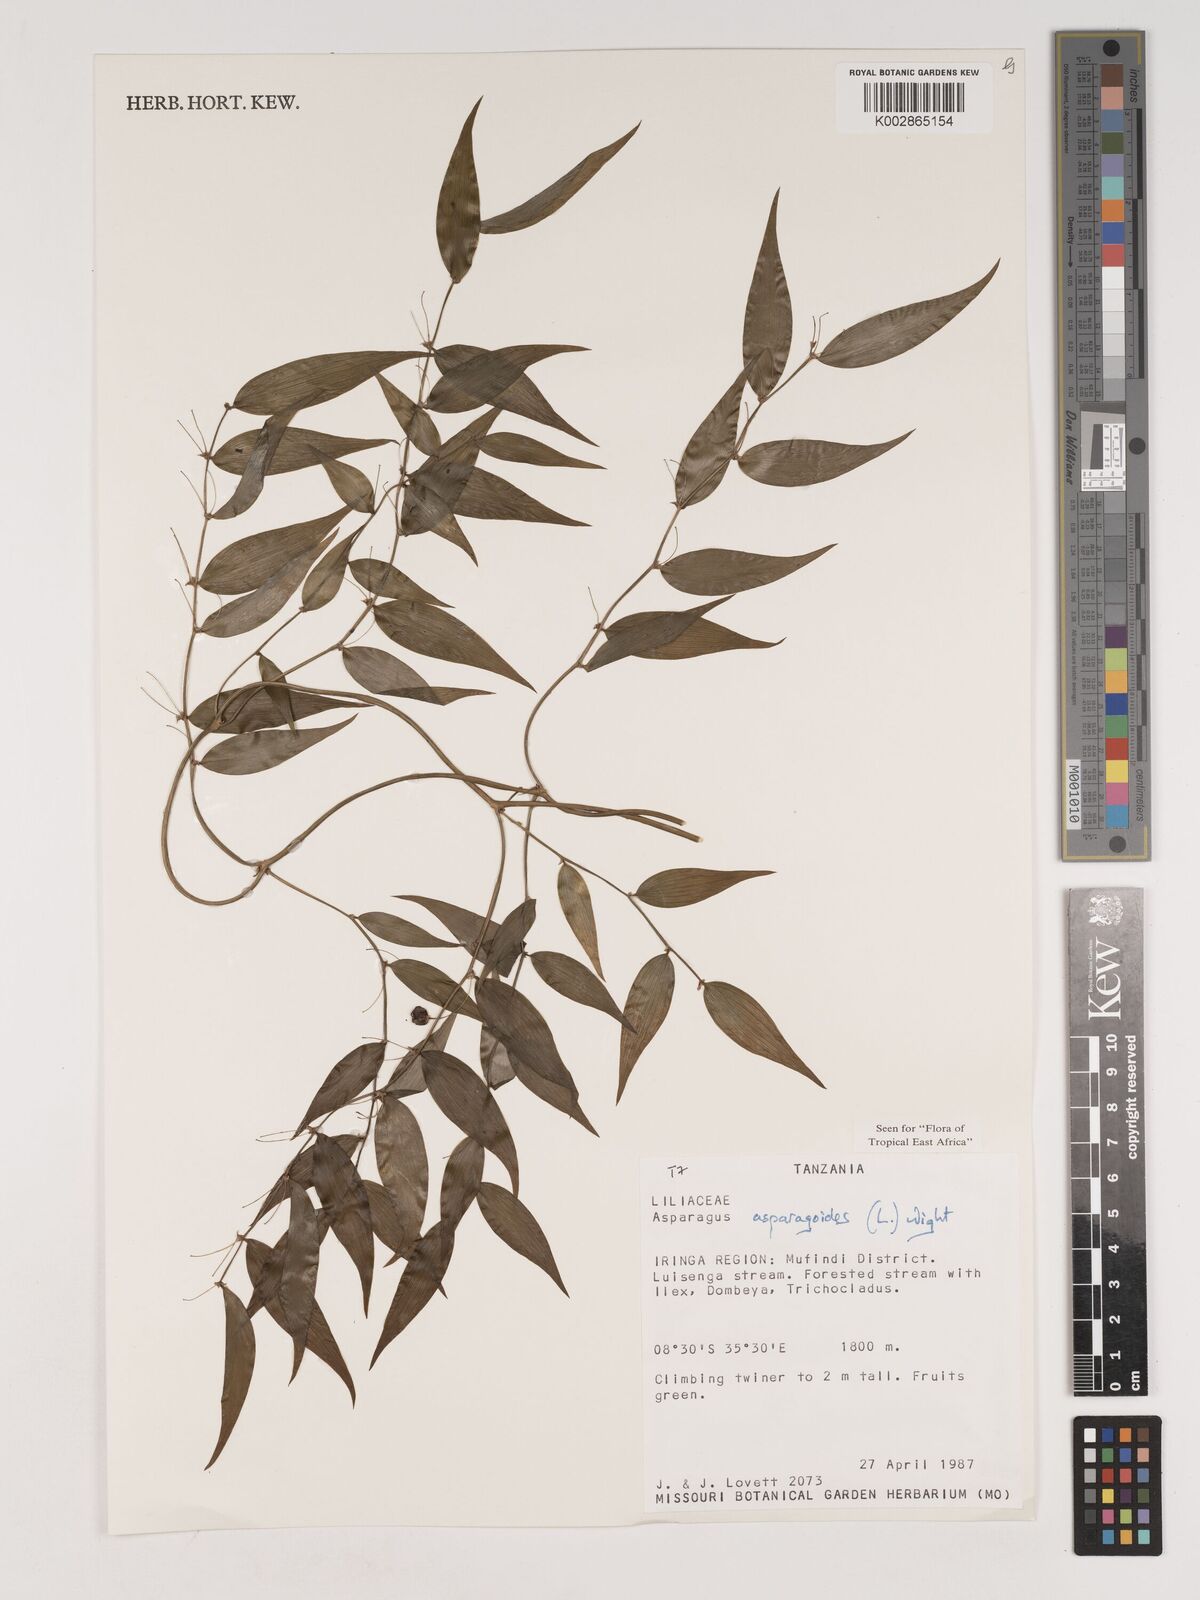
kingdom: Plantae
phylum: Tracheophyta
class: Liliopsida
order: Asparagales
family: Asparagaceae
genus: Asparagus
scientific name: Asparagus asparagoides
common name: African asparagus fern
